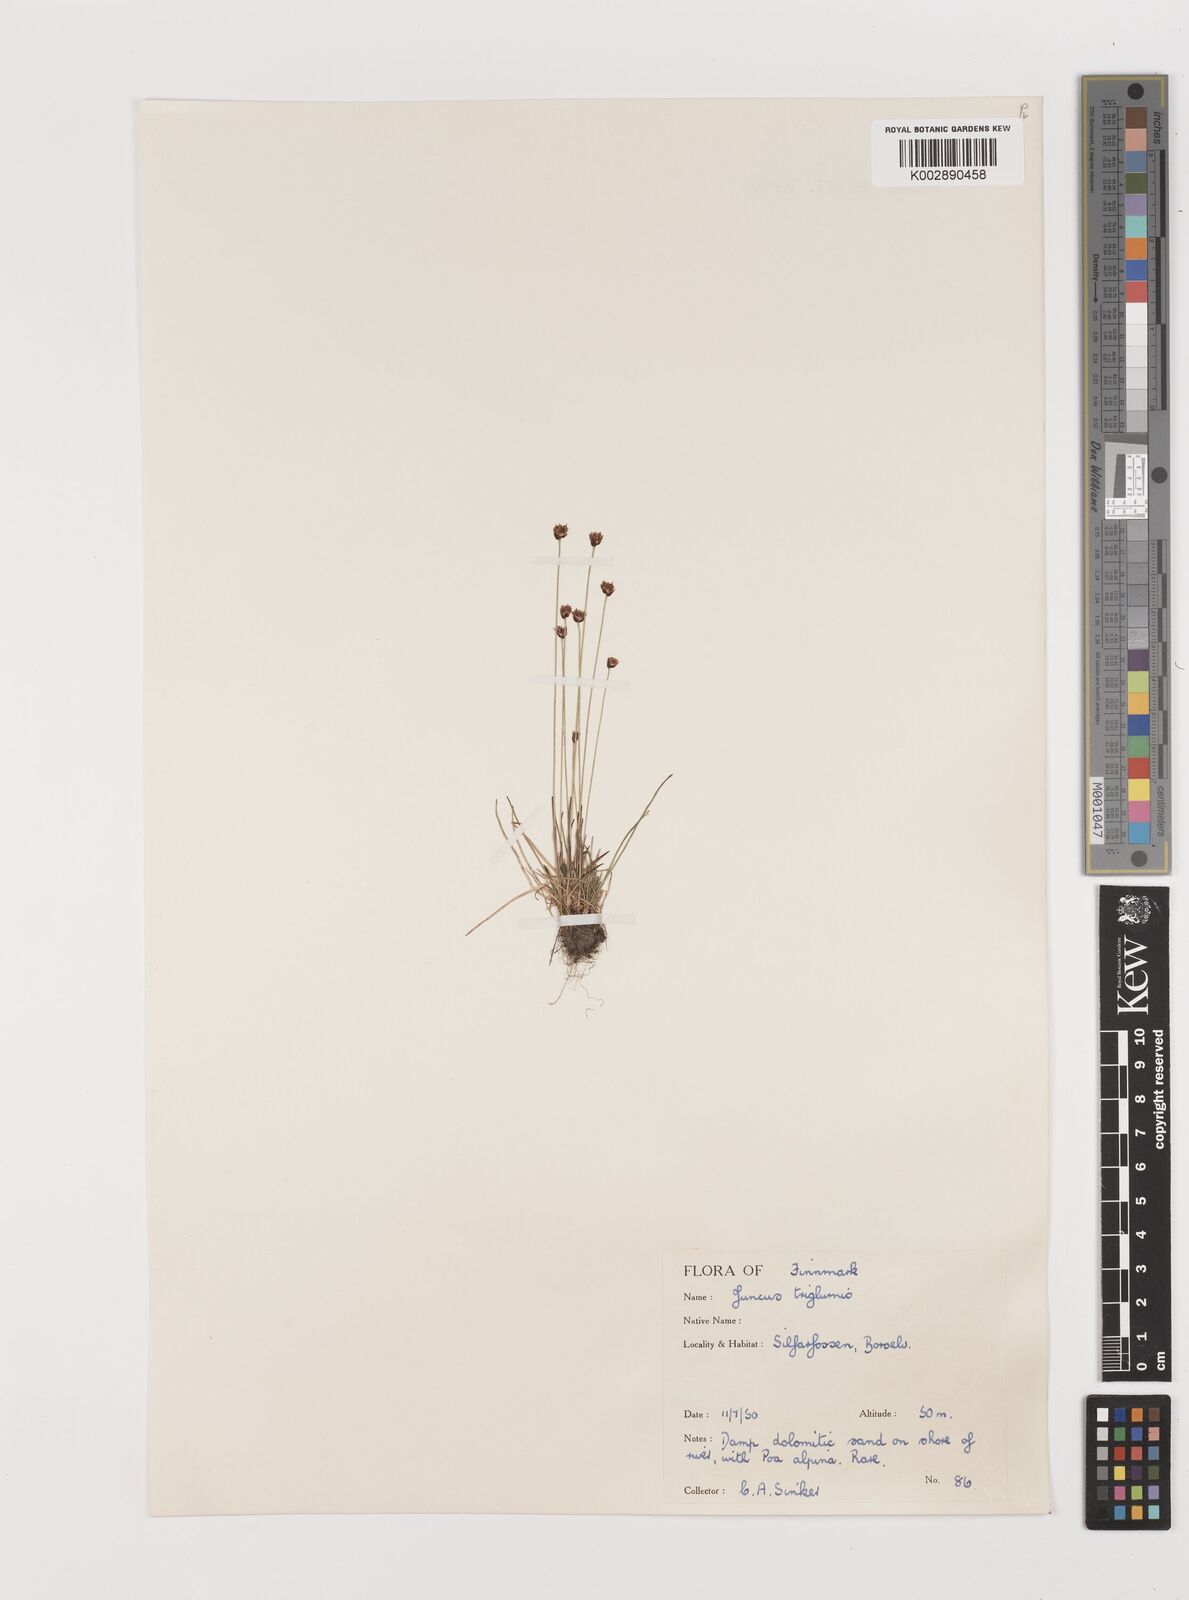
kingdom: Plantae
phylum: Tracheophyta
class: Liliopsida
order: Poales
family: Juncaceae
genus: Juncus
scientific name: Juncus triglumis
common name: Three-flowered rush
